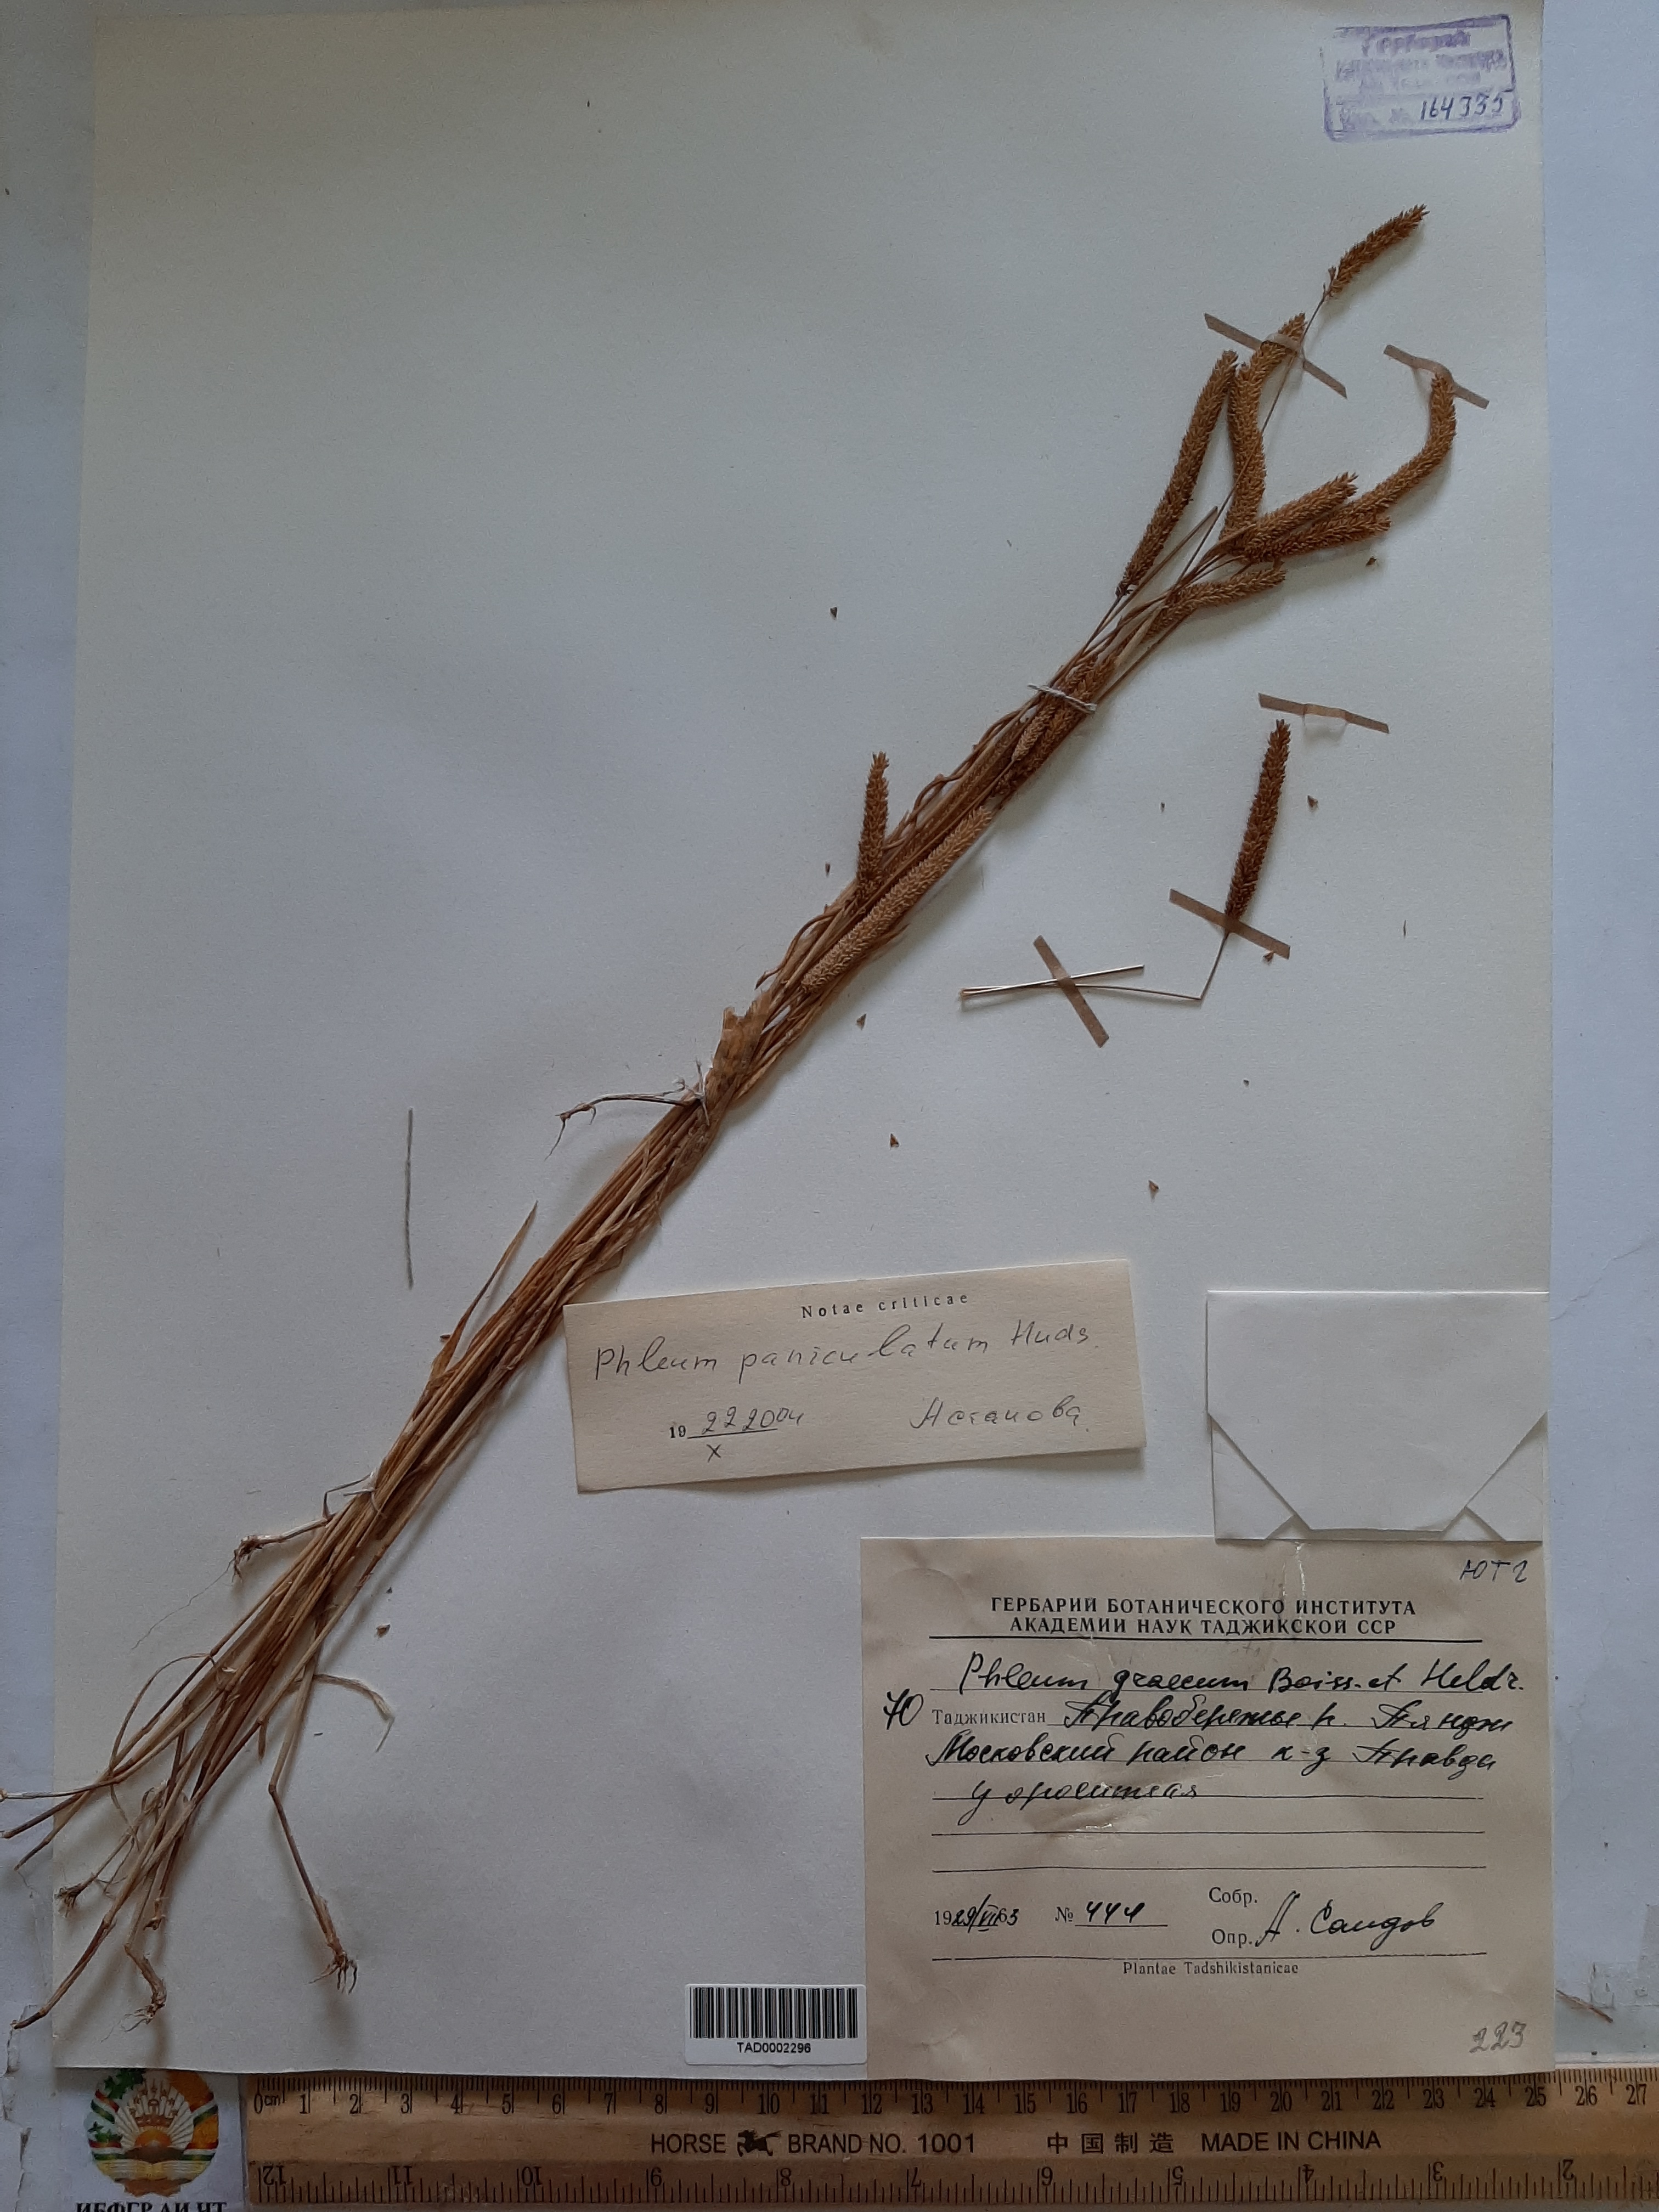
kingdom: Plantae
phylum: Tracheophyta
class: Liliopsida
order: Poales
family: Poaceae
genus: Phleum
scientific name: Phleum paniculatum
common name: British timothy
